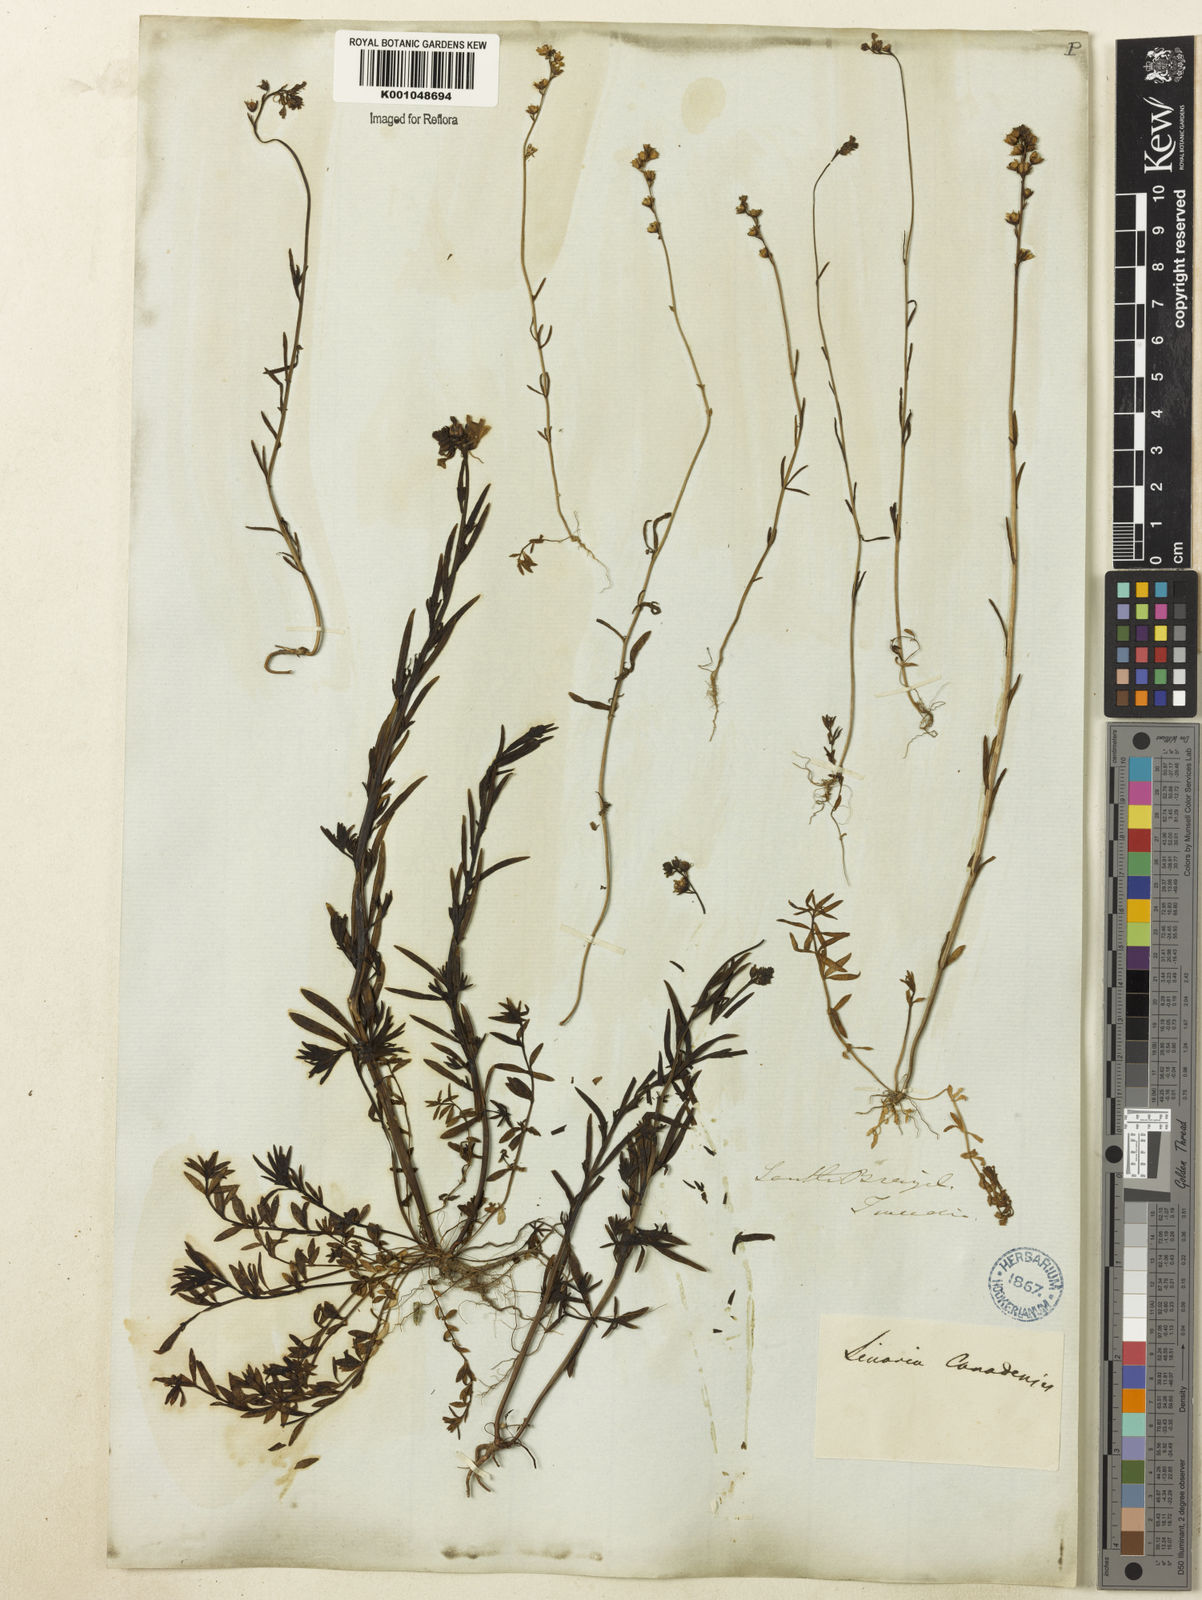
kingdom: Plantae
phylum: Tracheophyta
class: Magnoliopsida
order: Lamiales
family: Plantaginaceae
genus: Nuttallanthus
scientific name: Nuttallanthus canadensis
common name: Blue toadflax
